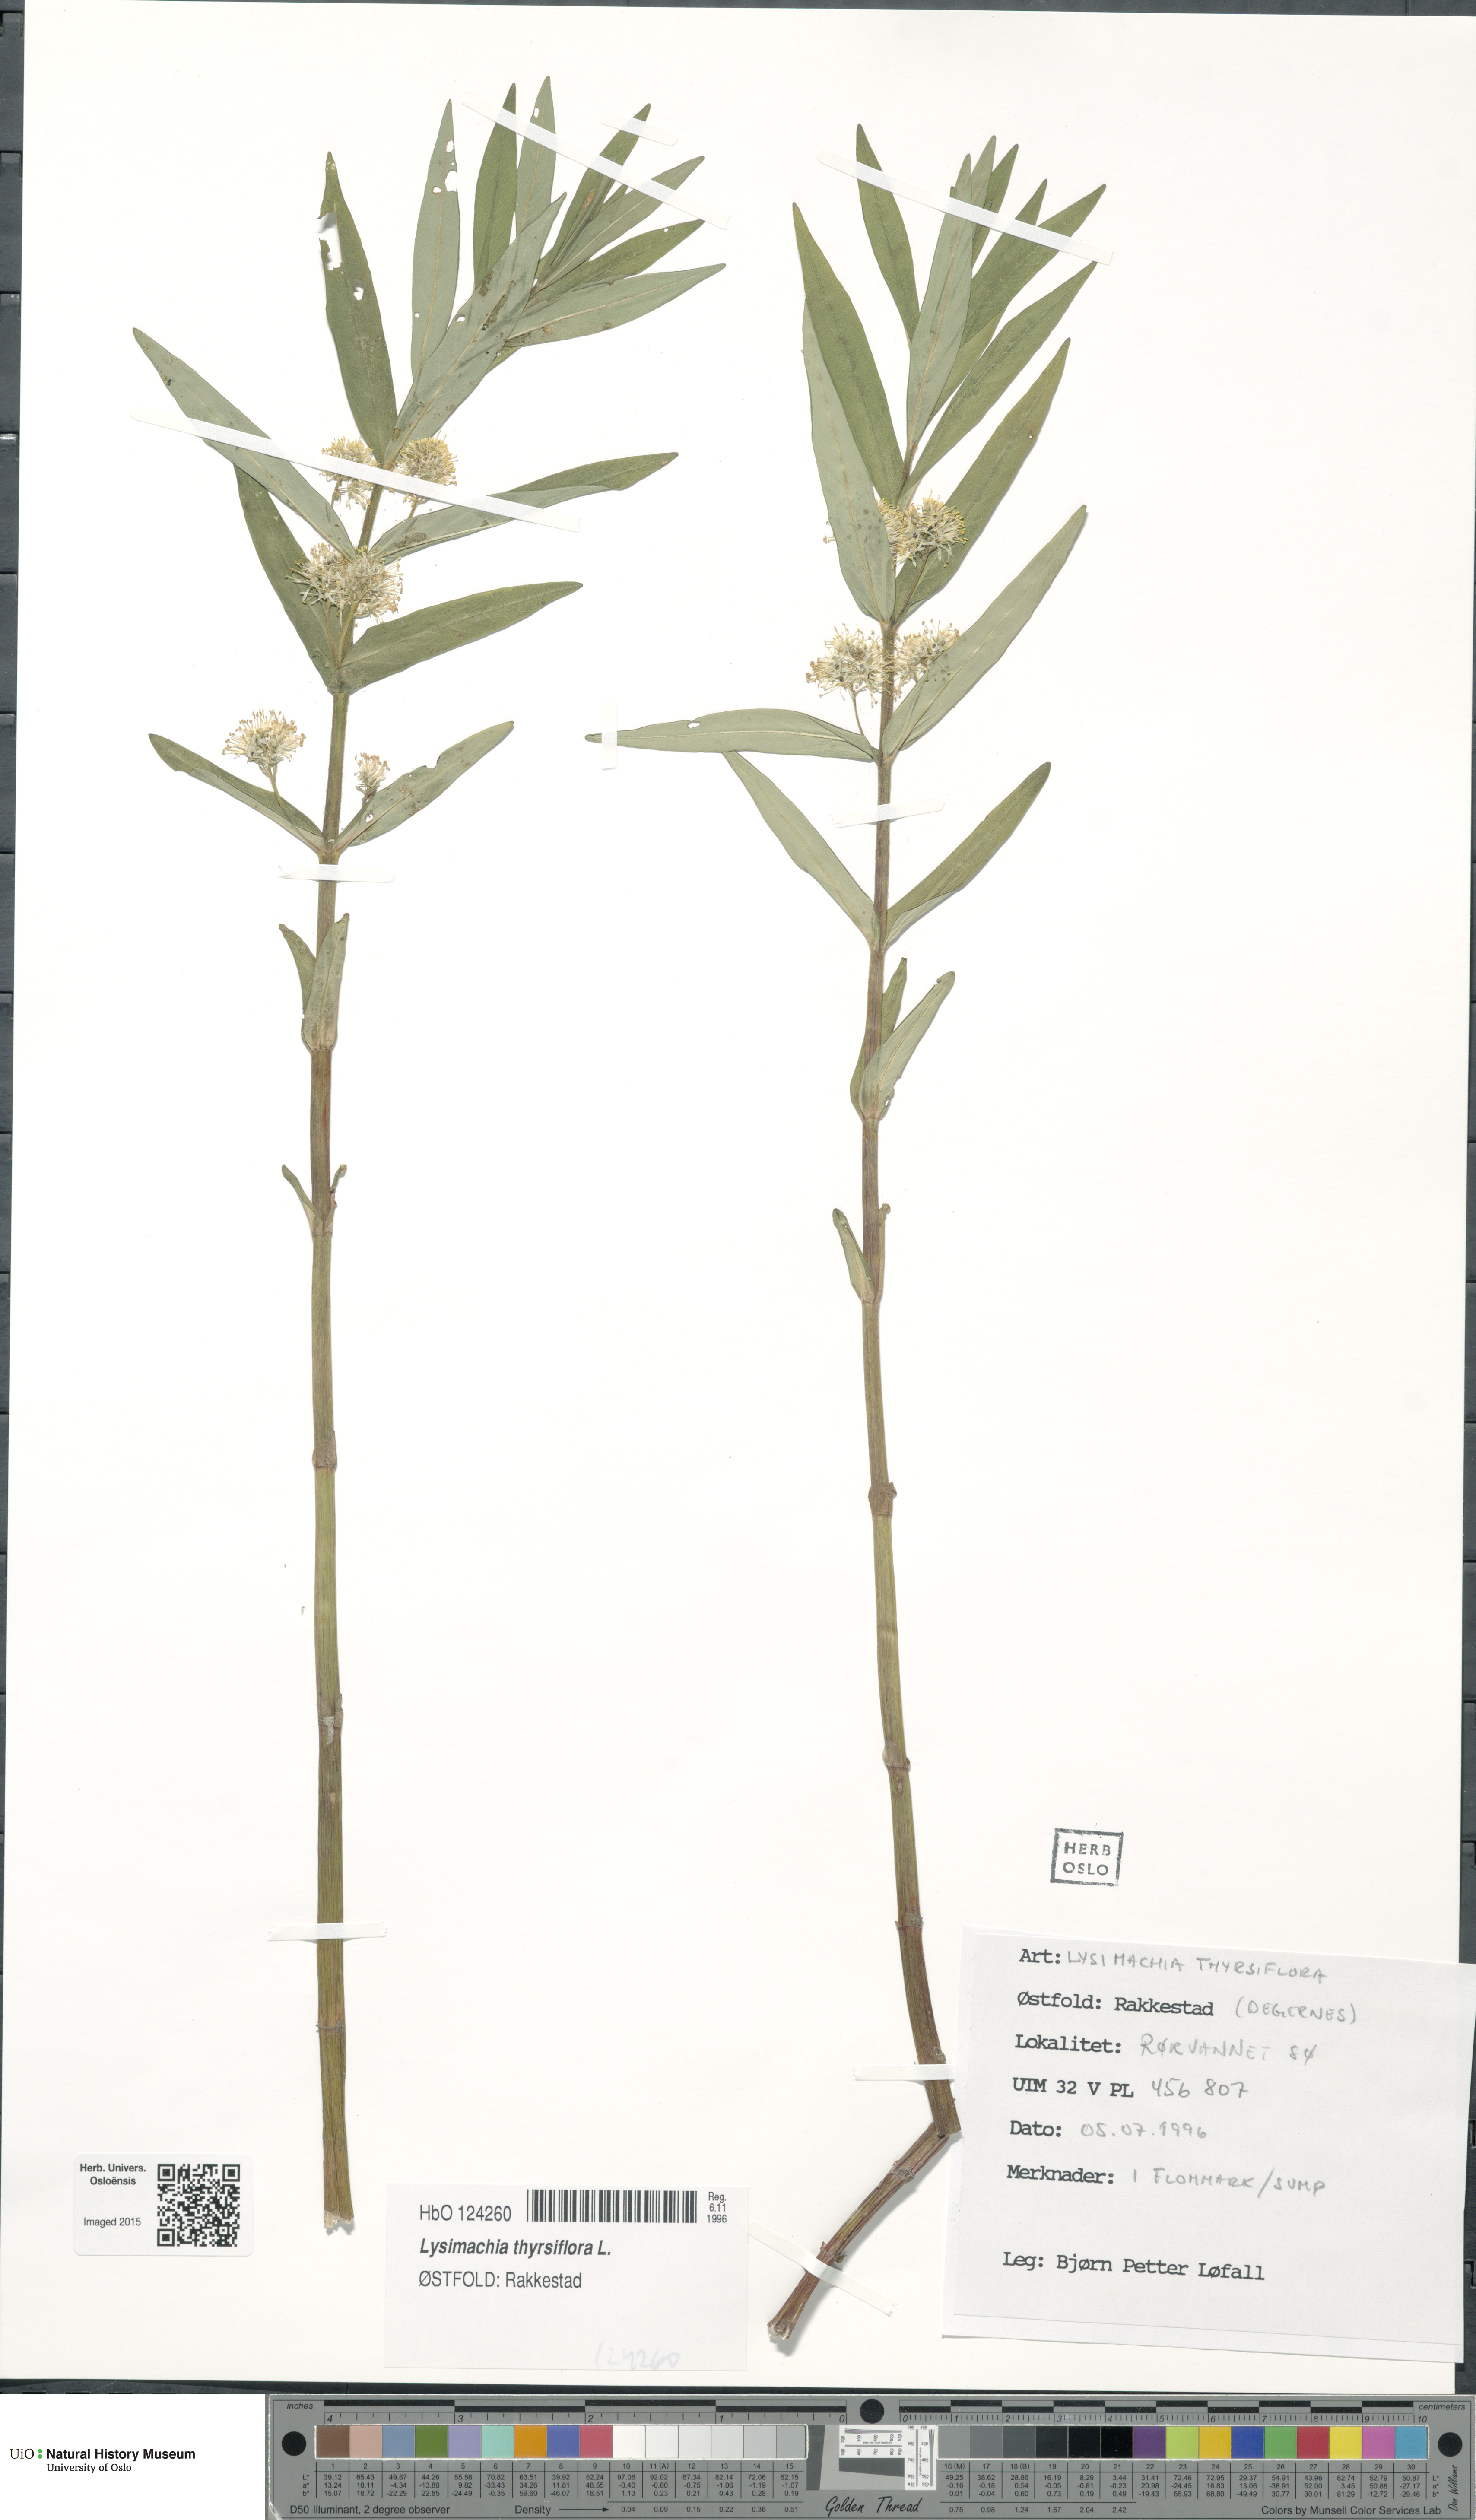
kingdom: Plantae
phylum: Tracheophyta
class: Magnoliopsida
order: Ericales
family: Primulaceae
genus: Lysimachia
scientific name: Lysimachia thyrsiflora
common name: Tufted loosestrife
